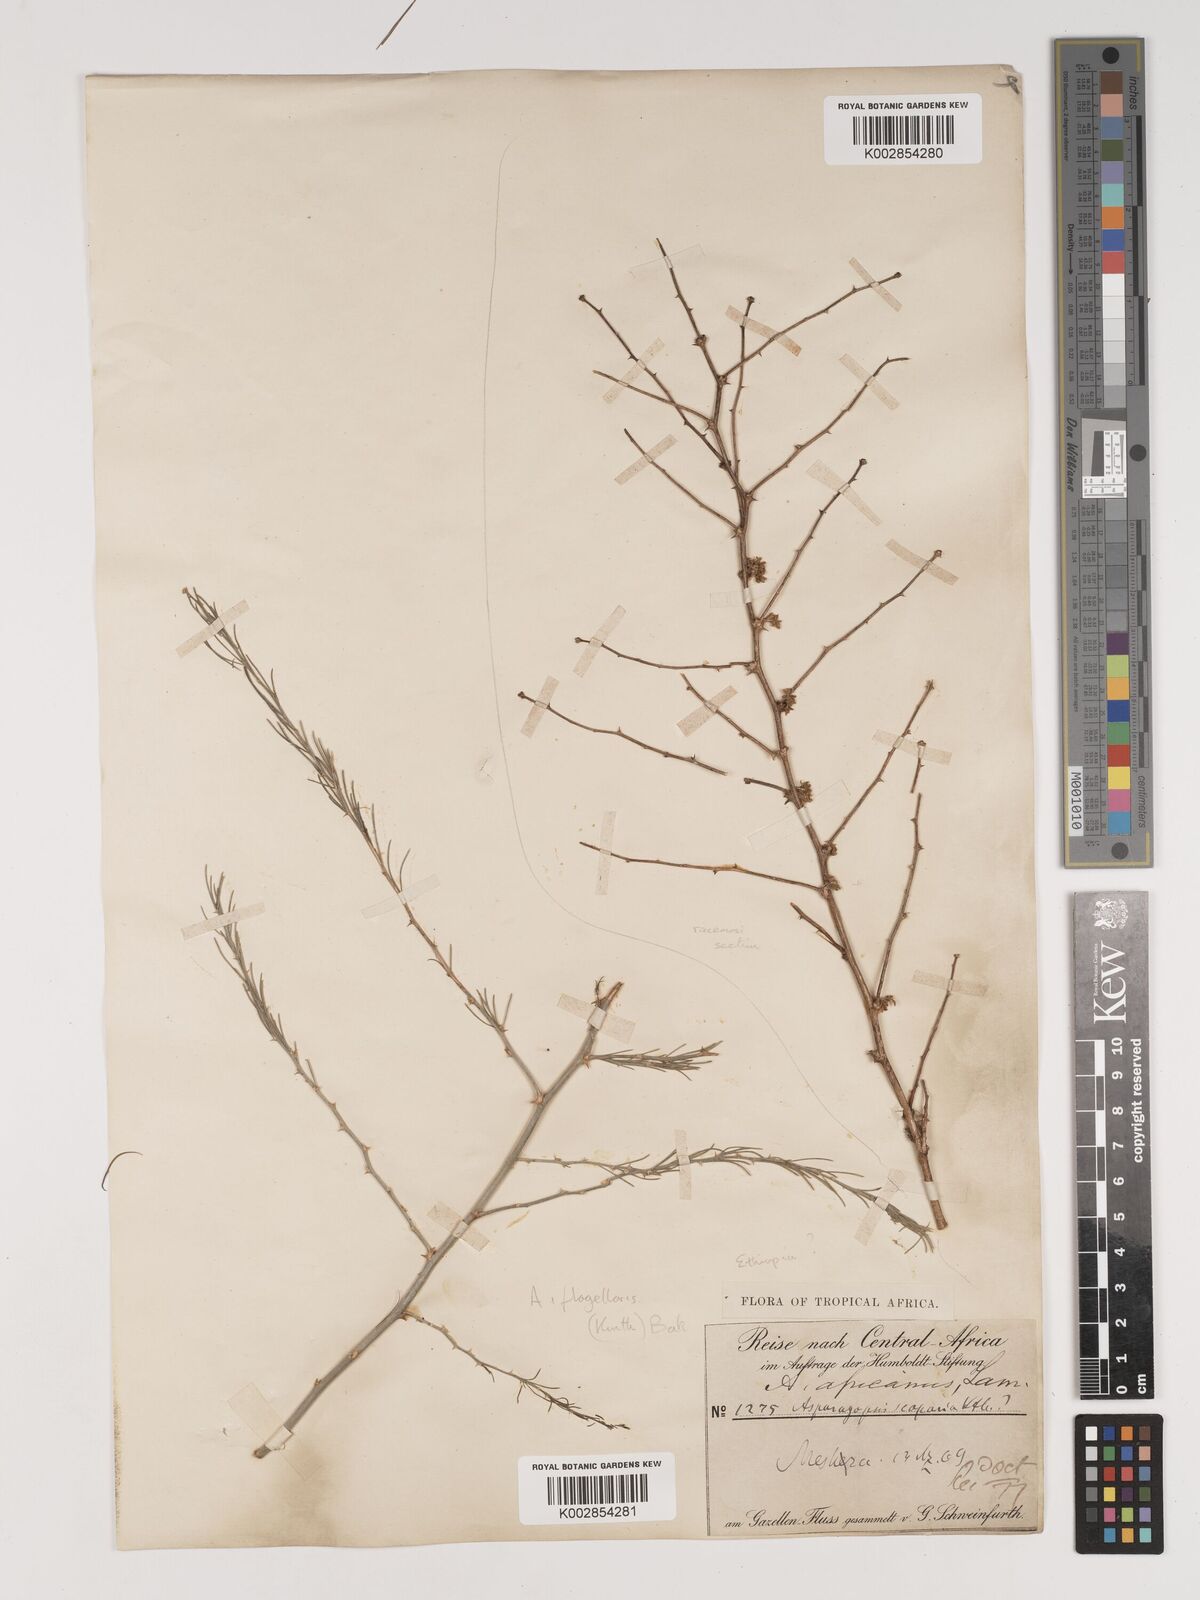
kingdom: Plantae
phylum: Tracheophyta
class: Liliopsida
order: Asparagales
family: Asparagaceae
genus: Asparagus
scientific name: Asparagus africanus
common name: Asparagus-fern
